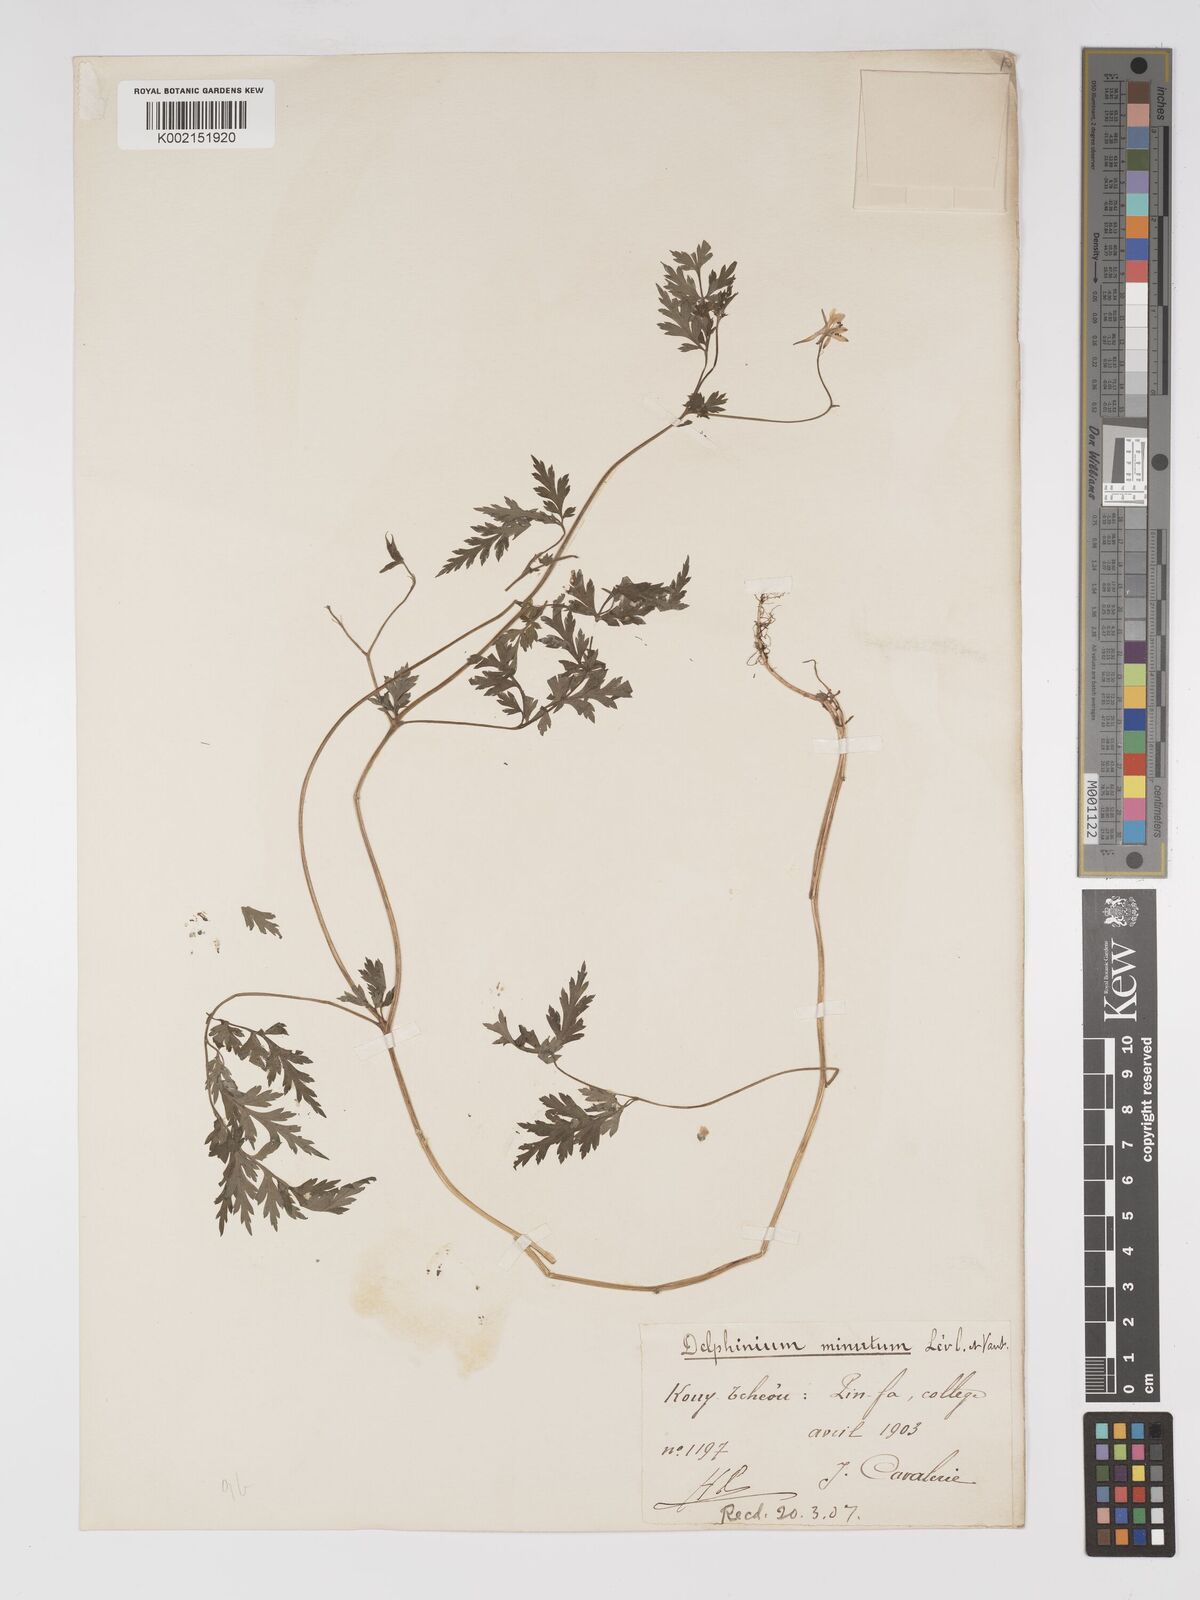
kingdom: Plantae
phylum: Tracheophyta
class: Magnoliopsida
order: Ranunculales
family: Ranunculaceae
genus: Delphinium
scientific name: Delphinium anthriscifolium
